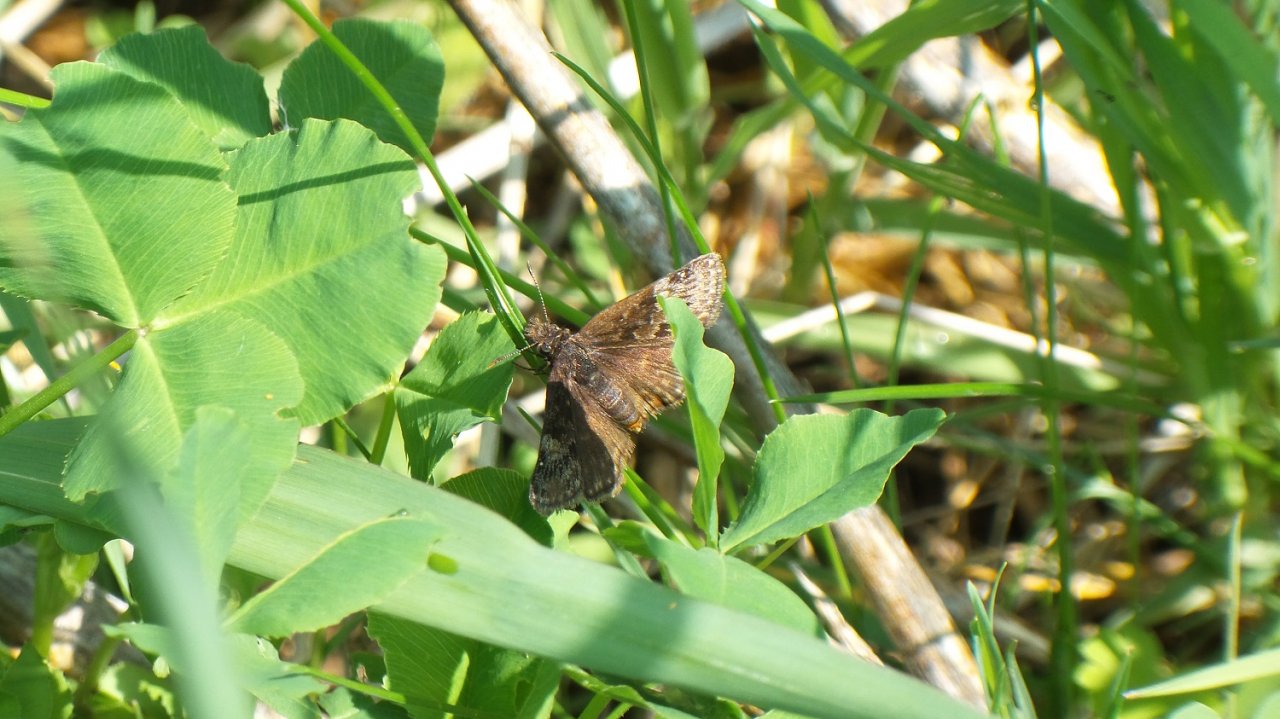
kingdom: Animalia
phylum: Arthropoda
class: Insecta
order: Lepidoptera
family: Hesperiidae
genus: Erynnis
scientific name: Erynnis
